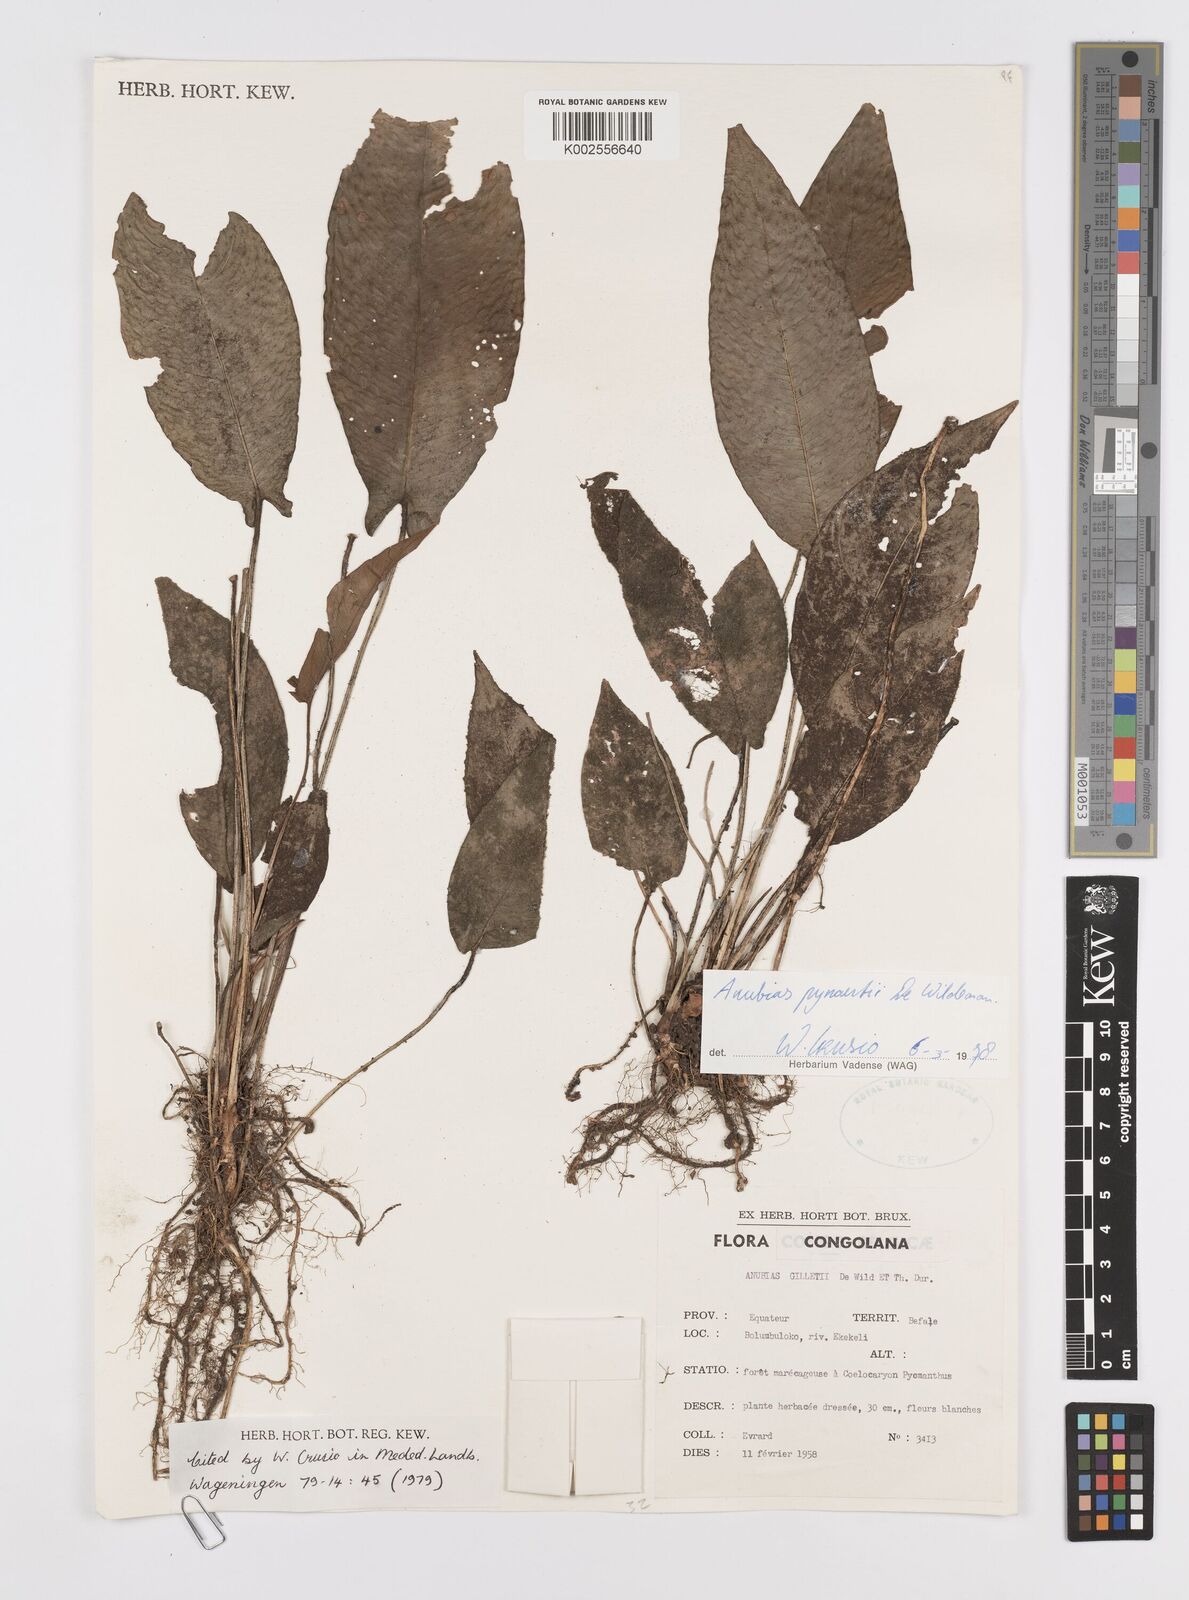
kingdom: Plantae
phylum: Tracheophyta
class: Liliopsida
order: Alismatales
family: Araceae
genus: Anubias
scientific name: Anubias pynaertii
